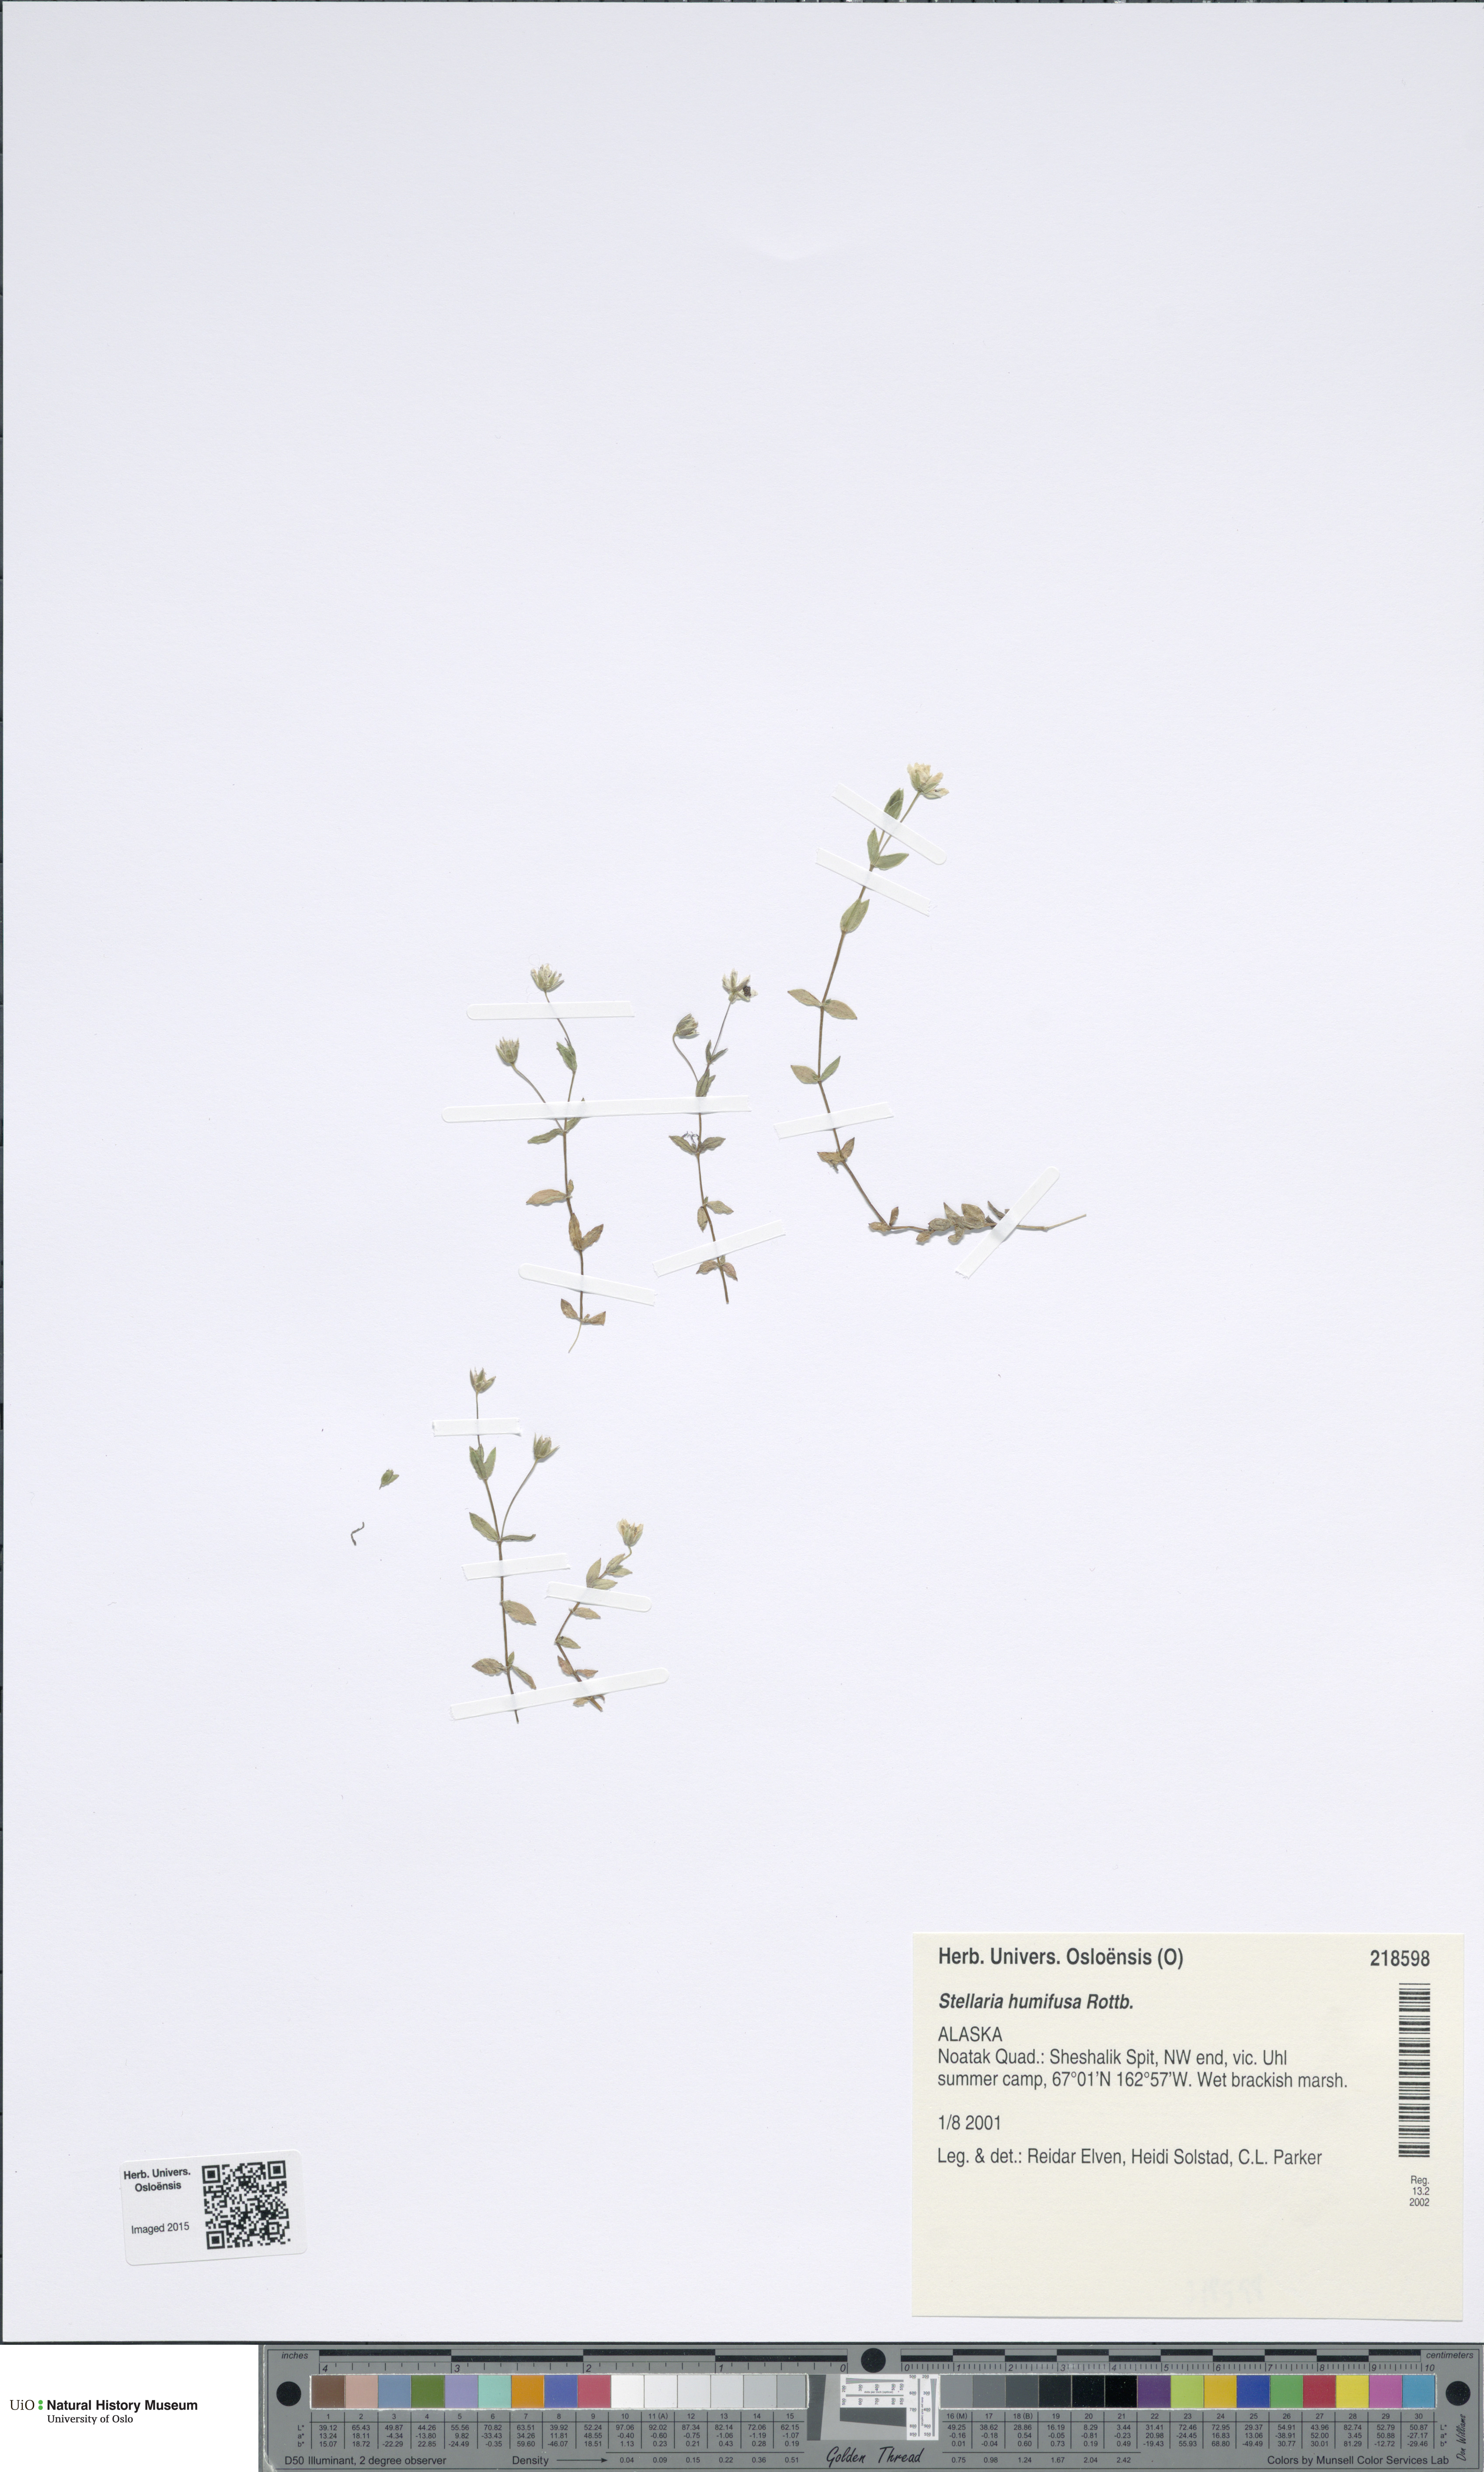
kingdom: Plantae
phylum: Tracheophyta
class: Magnoliopsida
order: Caryophyllales
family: Caryophyllaceae
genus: Stellaria
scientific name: Stellaria humifusa
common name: Creeping starwort
